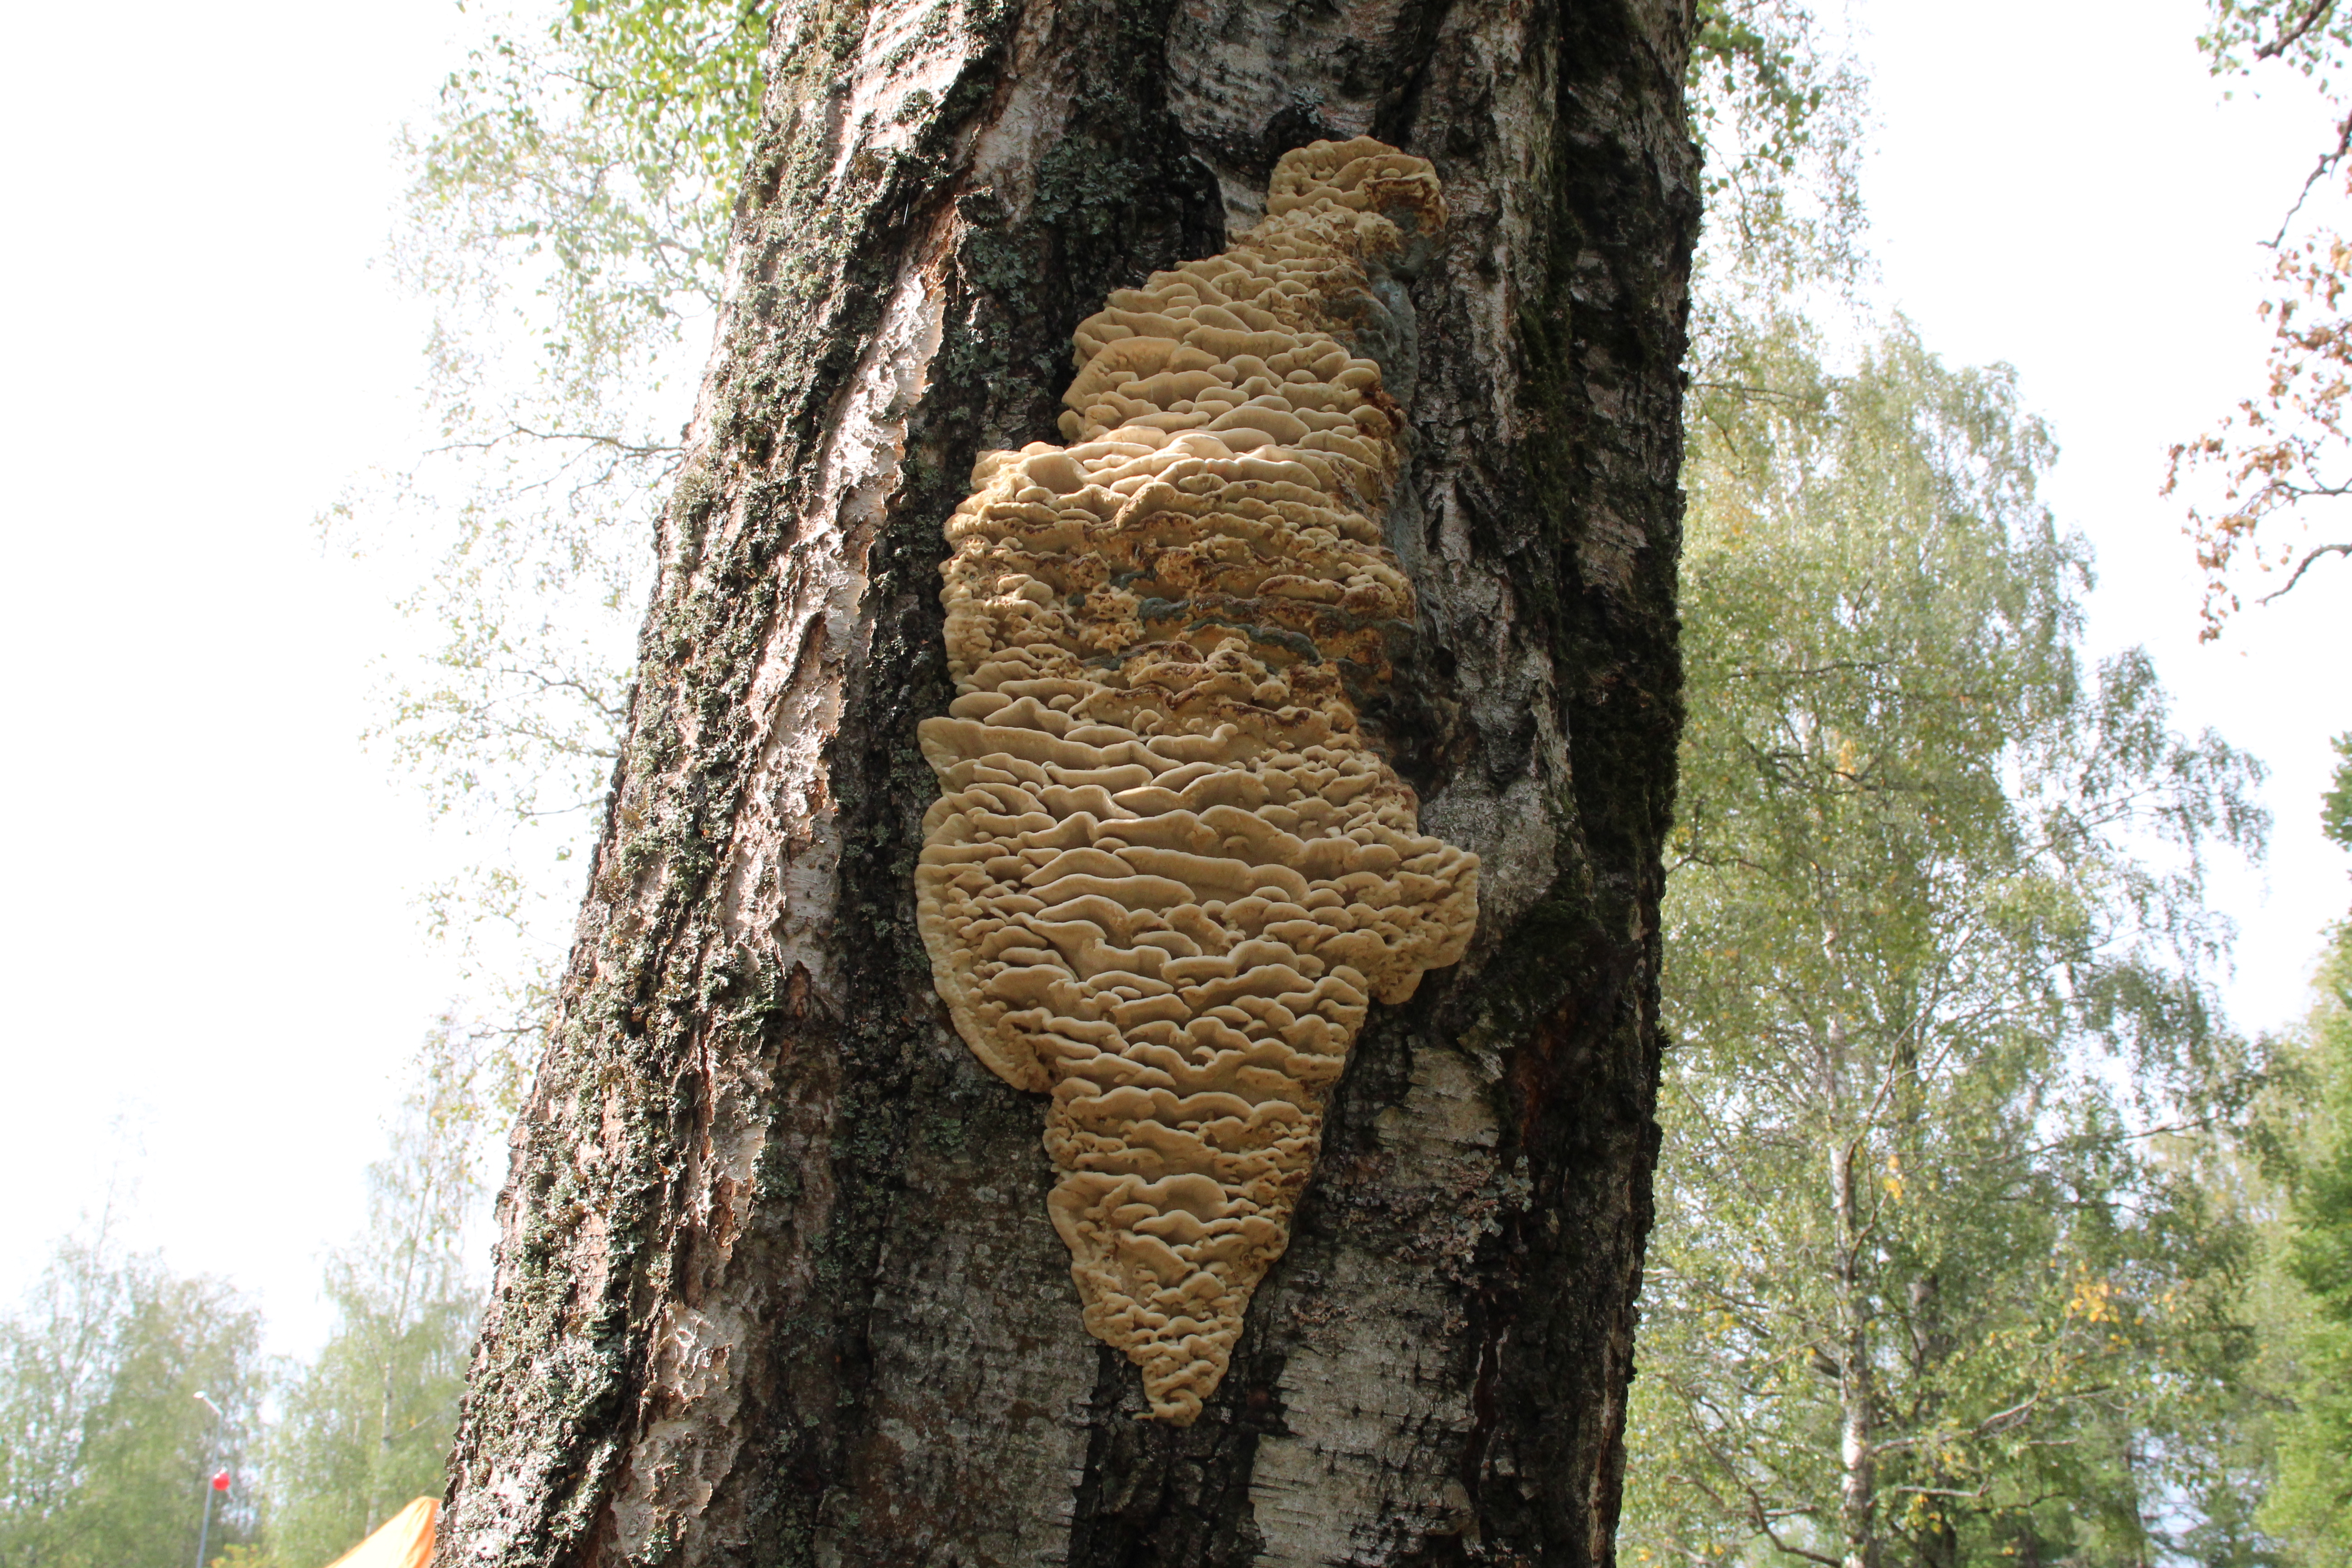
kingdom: Fungi
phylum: Basidiomycota
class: Agaricomycetes
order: Polyporales
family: Meruliaceae
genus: Climacodon
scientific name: Climacodon septentrionalis
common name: Northern tooth
